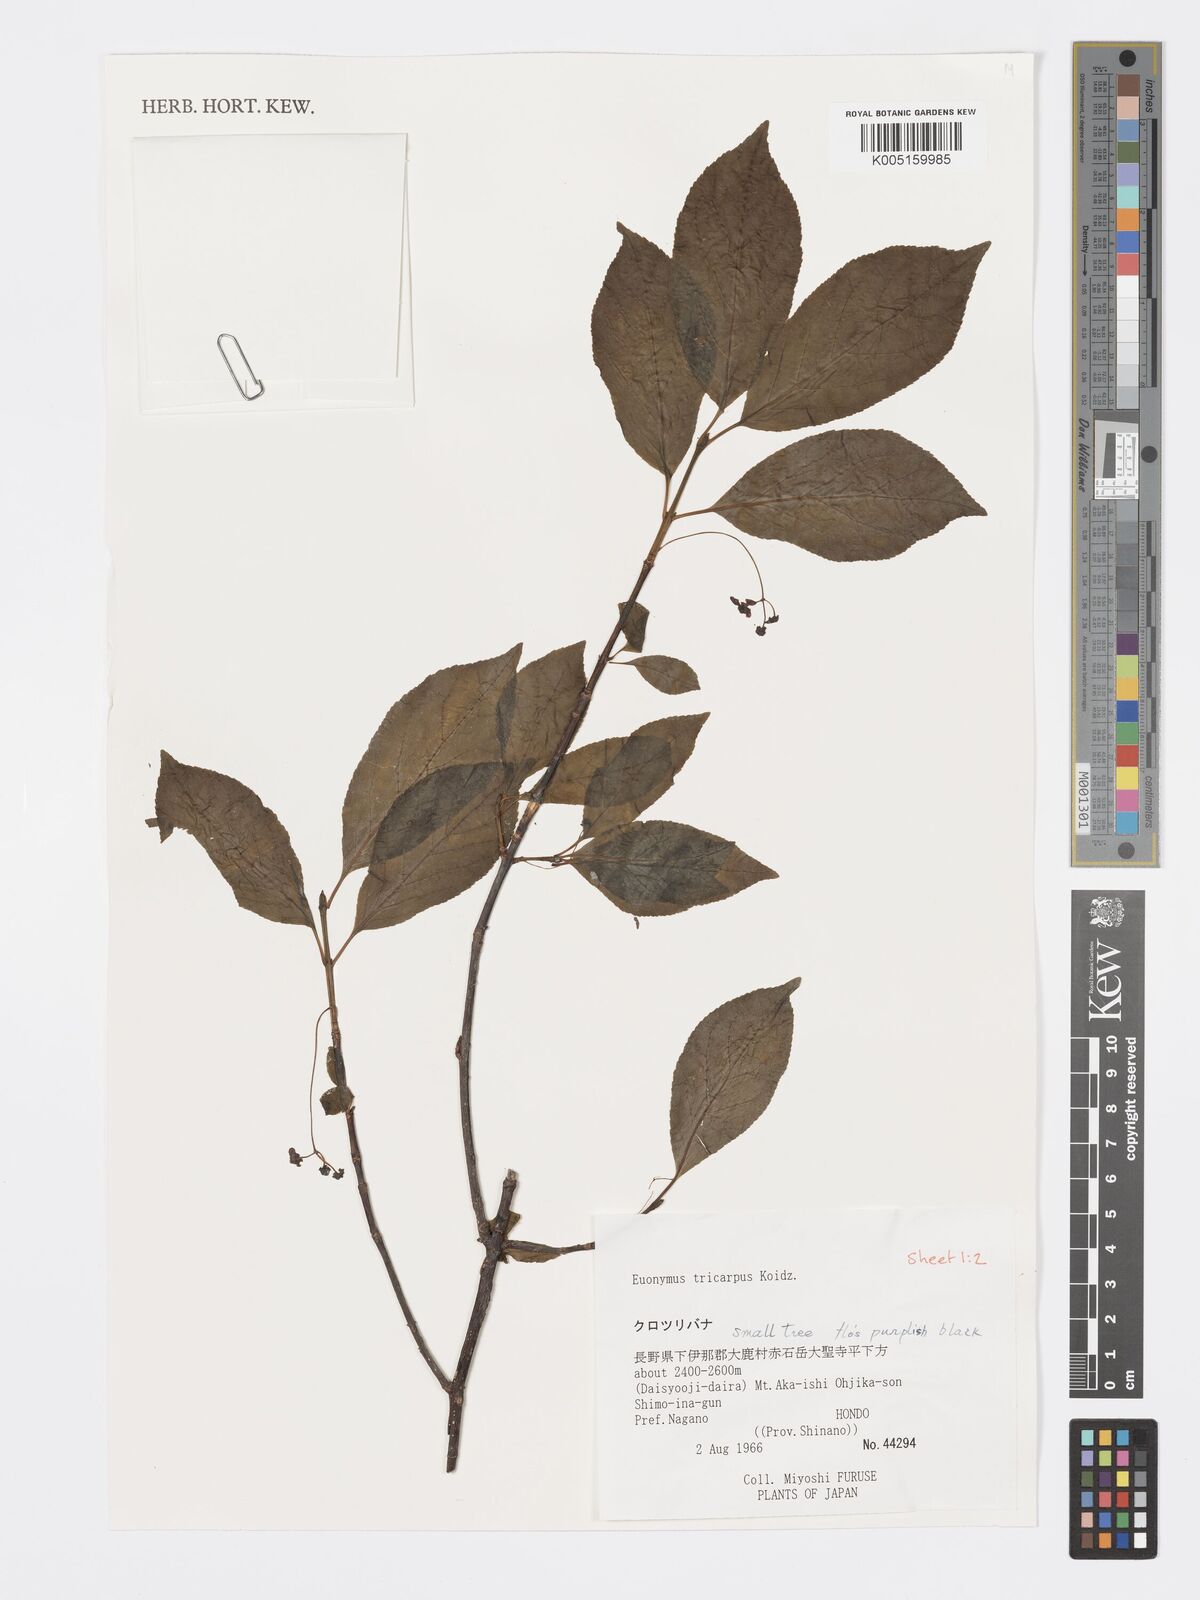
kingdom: Plantae
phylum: Tracheophyta
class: Magnoliopsida
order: Celastrales
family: Celastraceae
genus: Euonymus
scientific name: Euonymus sachalinensis
